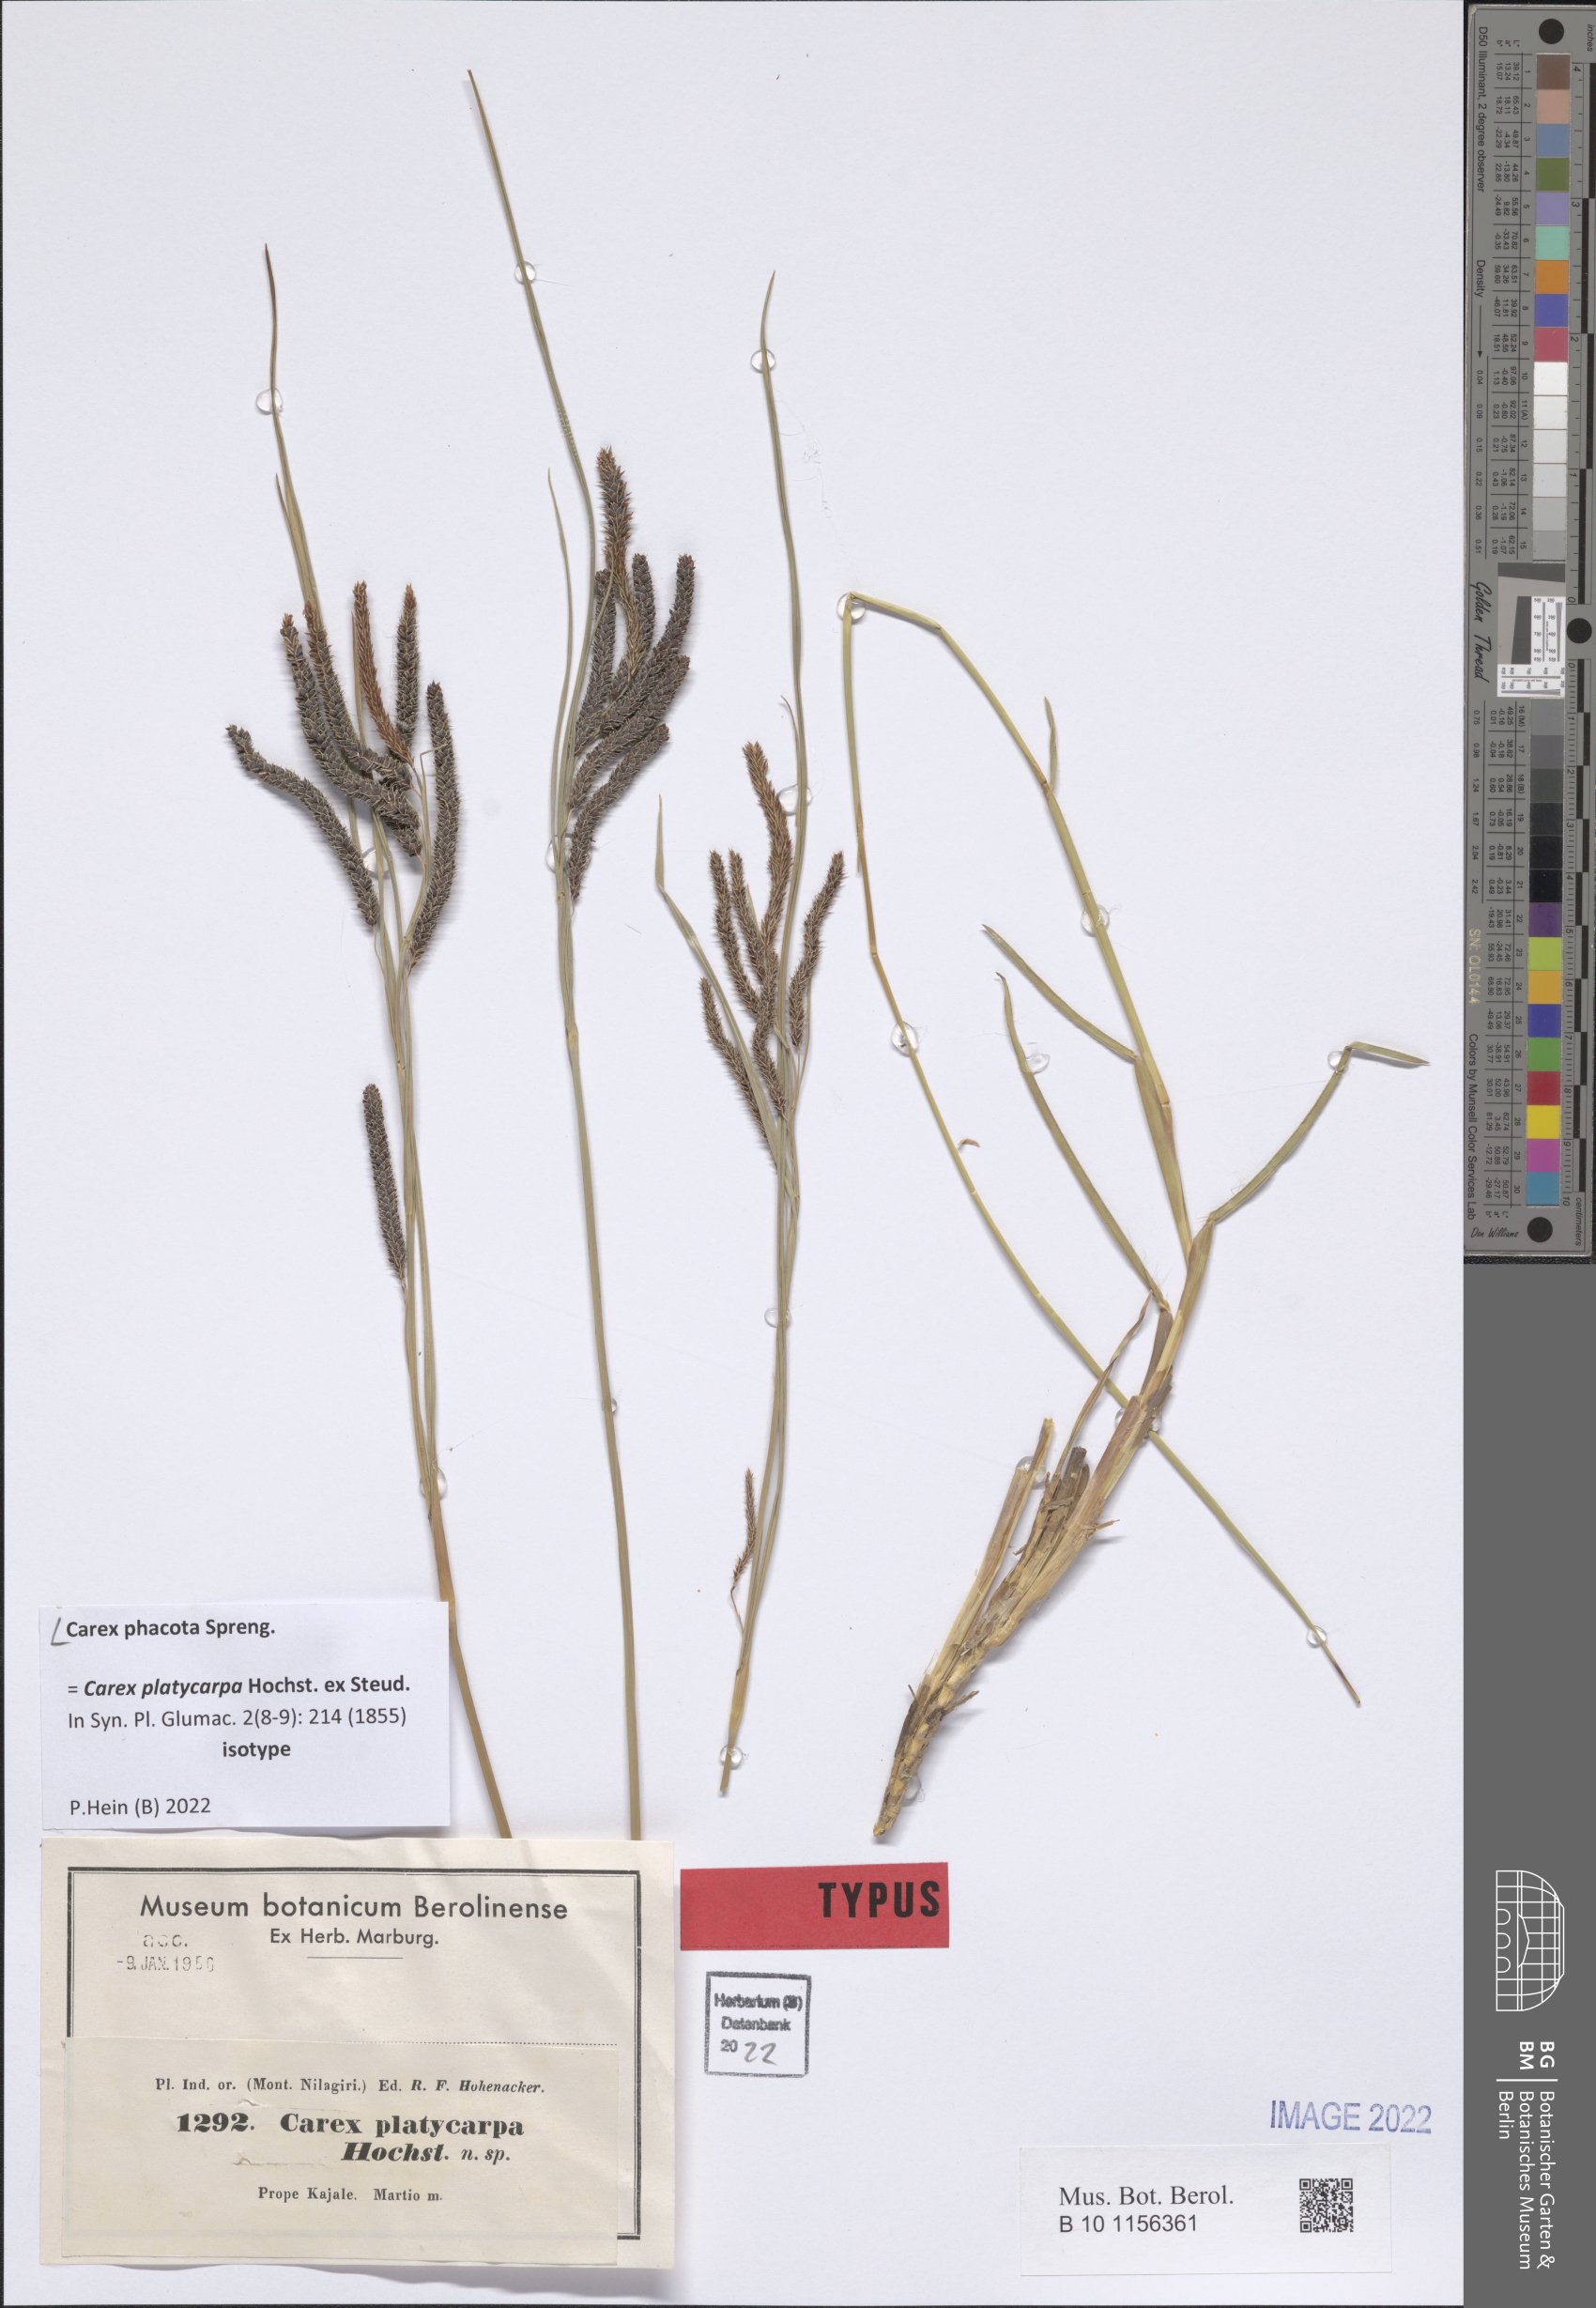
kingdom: Plantae
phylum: Tracheophyta
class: Liliopsida
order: Poales
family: Cyperaceae
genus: Carex
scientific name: Carex phacota
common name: Lakeshore sedge
